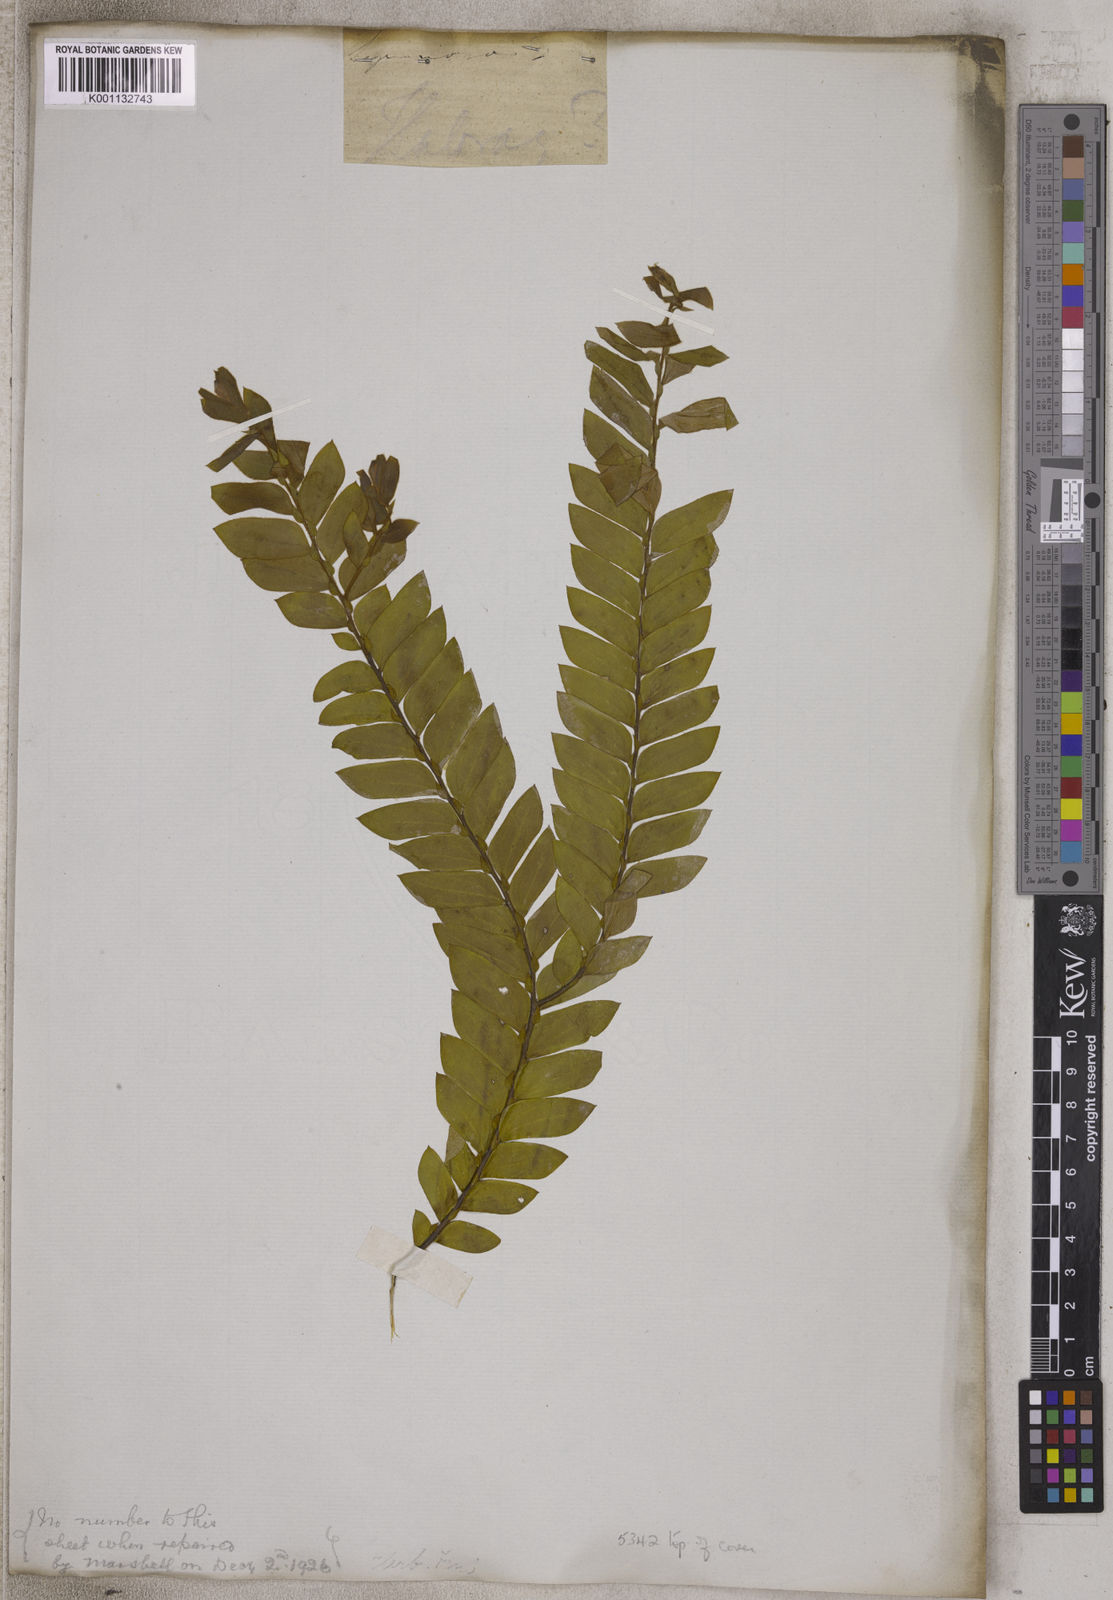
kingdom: Plantae
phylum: Tracheophyta
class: Magnoliopsida
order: Fabales
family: Fabaceae
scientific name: Fabaceae
